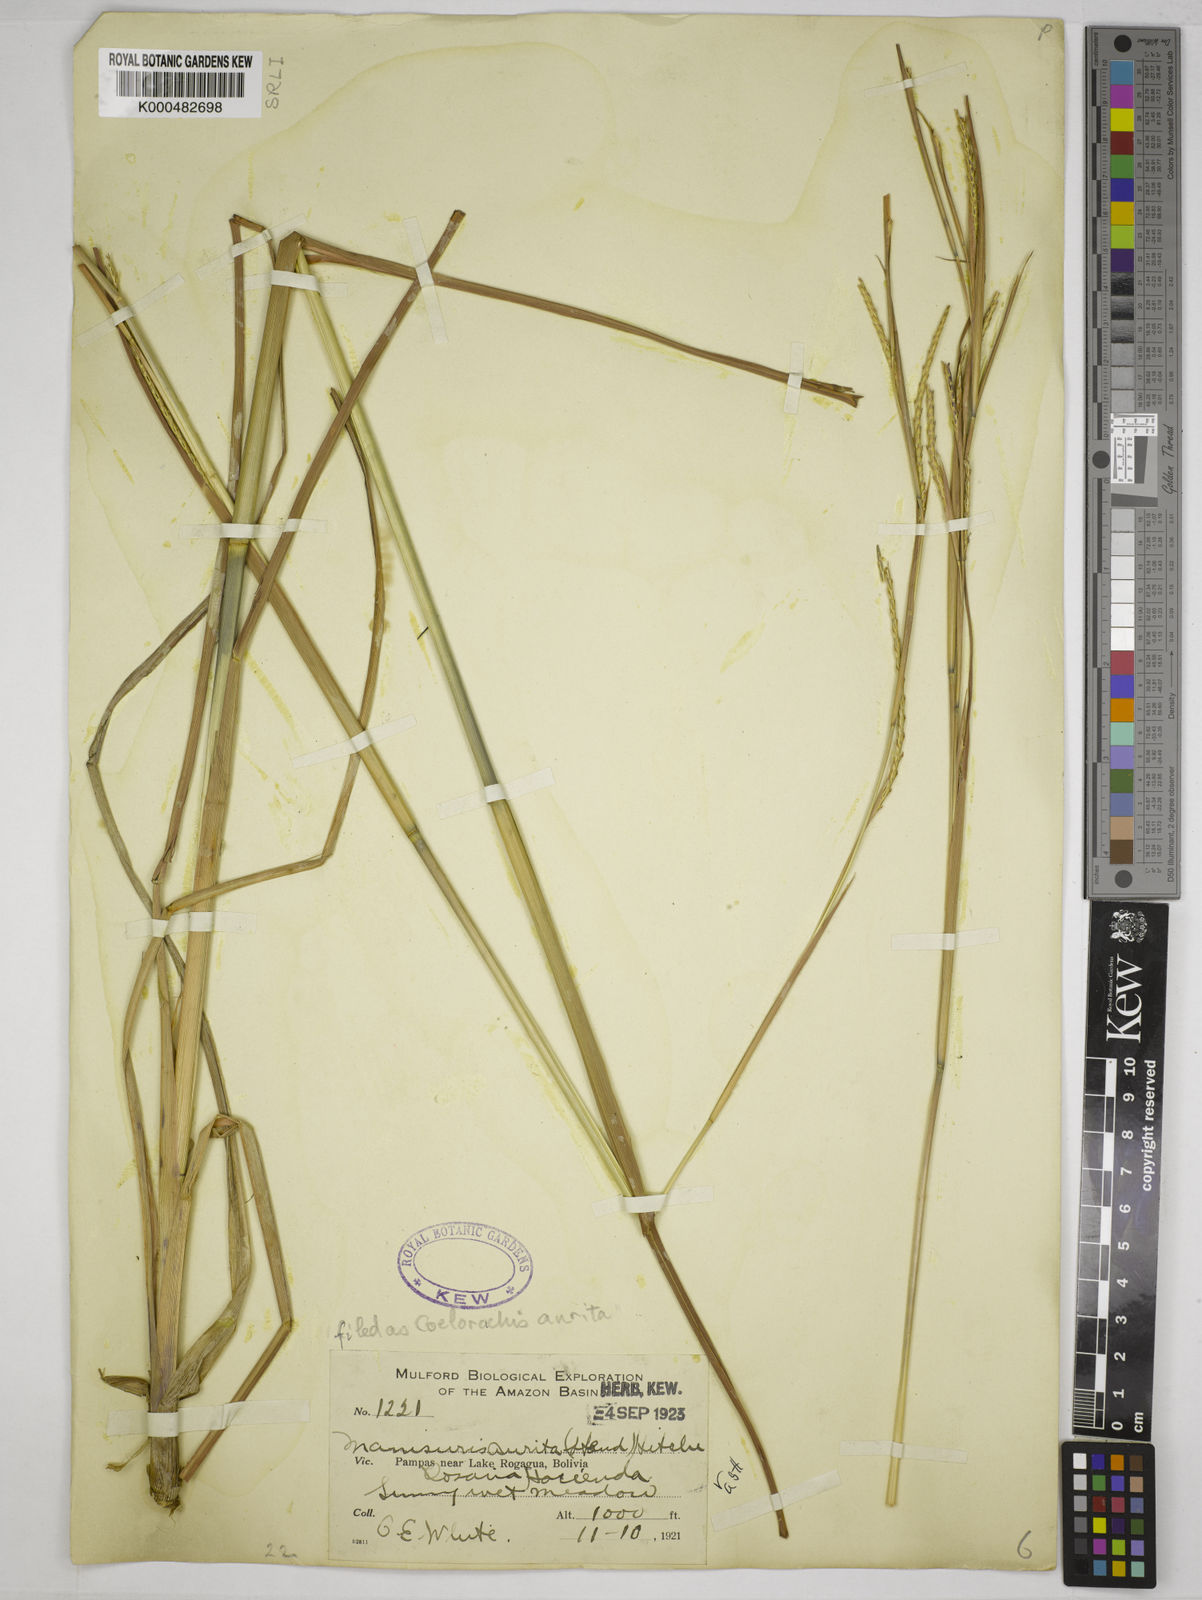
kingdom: Plantae
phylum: Tracheophyta
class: Liliopsida
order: Poales
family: Poaceae
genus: Rottboellia
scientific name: Rottboellia aurita
